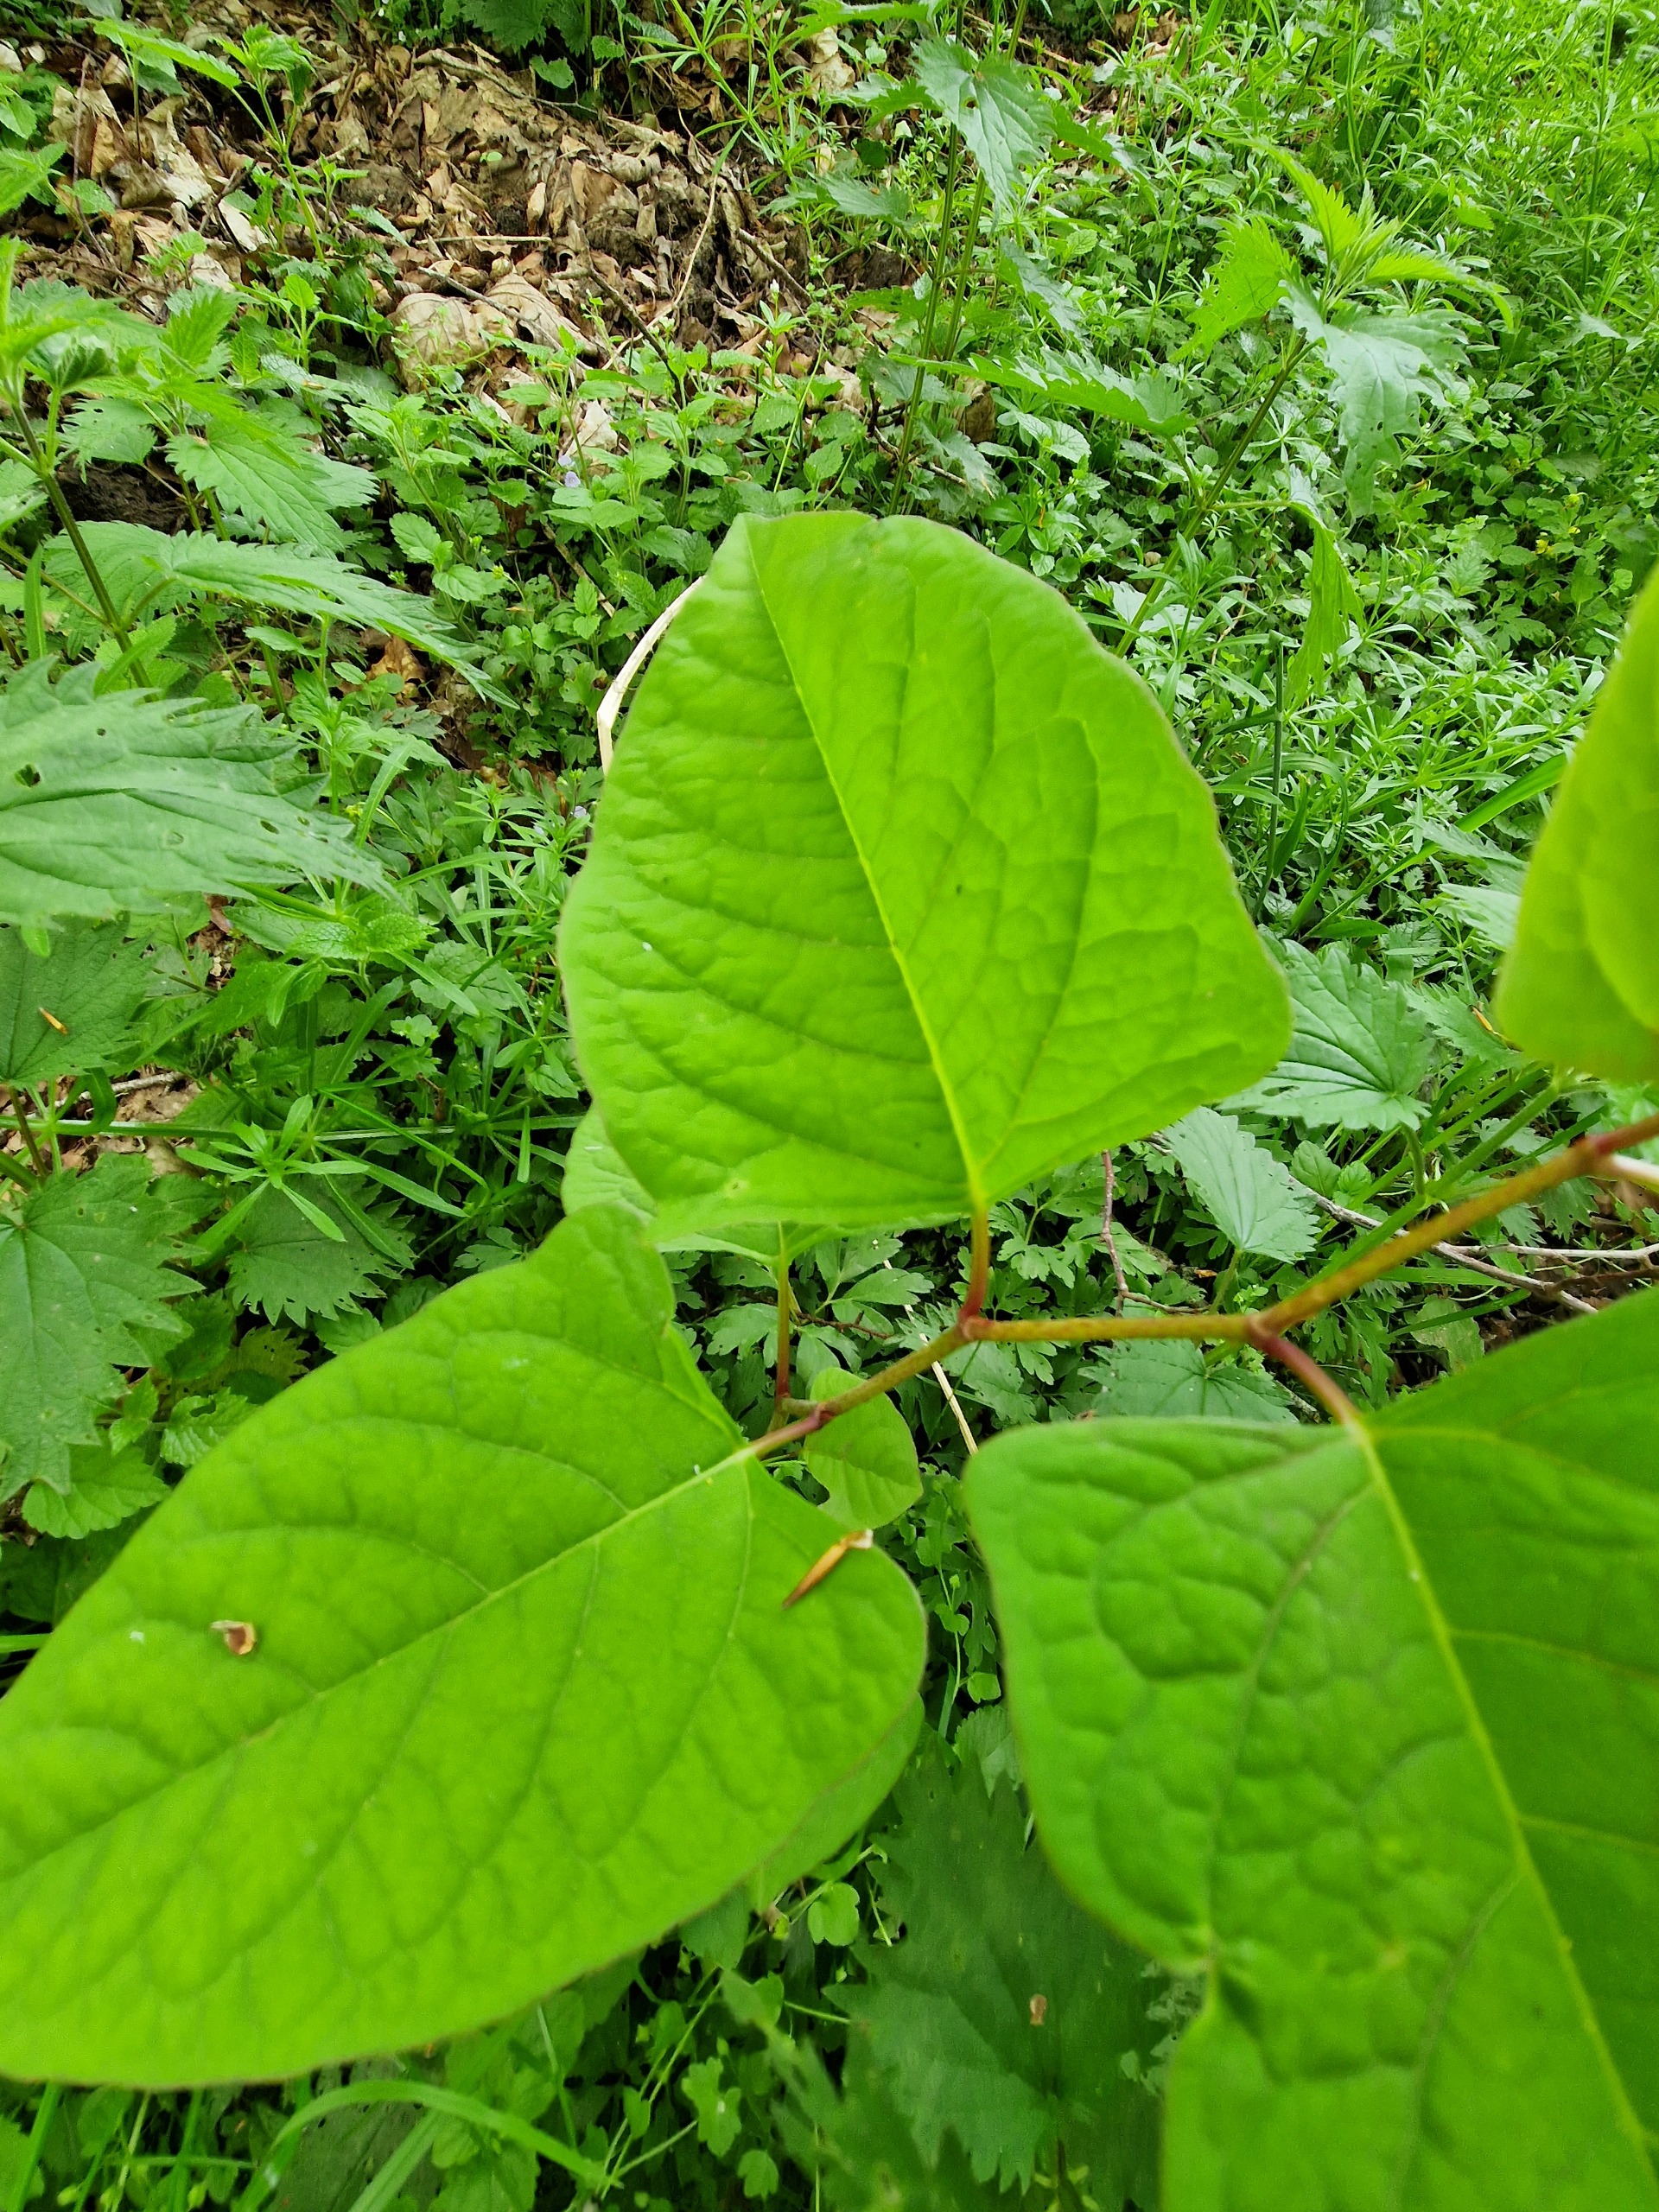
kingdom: Plantae
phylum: Tracheophyta
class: Magnoliopsida
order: Caryophyllales
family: Polygonaceae
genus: Reynoutria
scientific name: Reynoutria japonica
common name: Japan-pileurt
